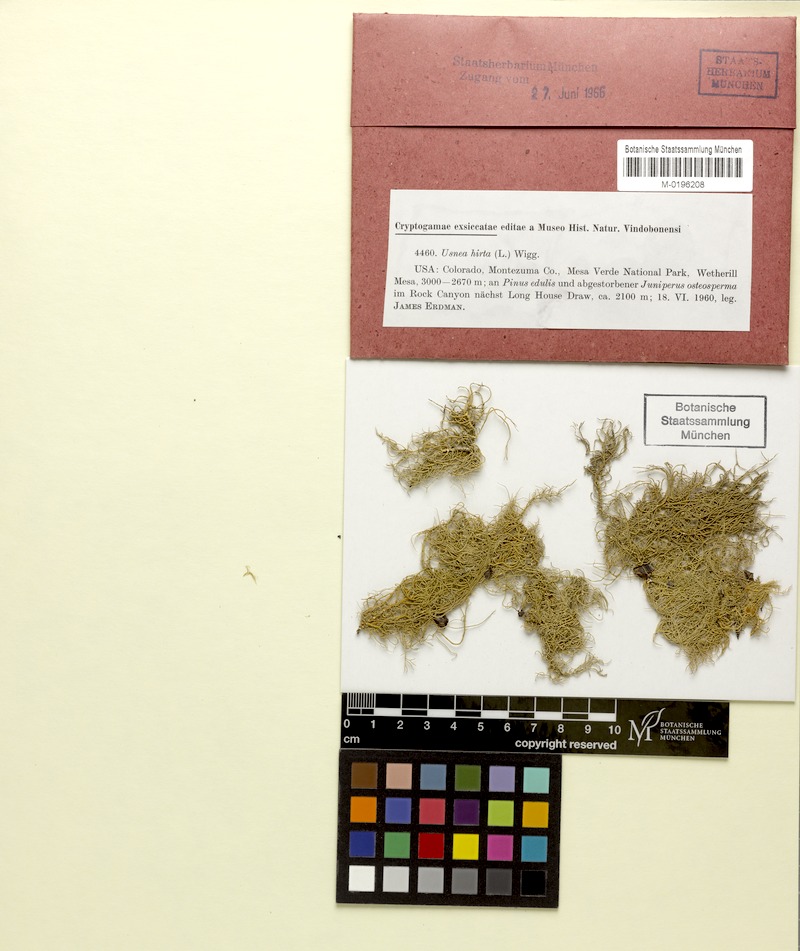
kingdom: Fungi
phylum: Ascomycota
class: Lecanoromycetes
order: Lecanorales
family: Parmeliaceae
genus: Usnea
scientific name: Usnea hirta
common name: Bristly beard lichen
